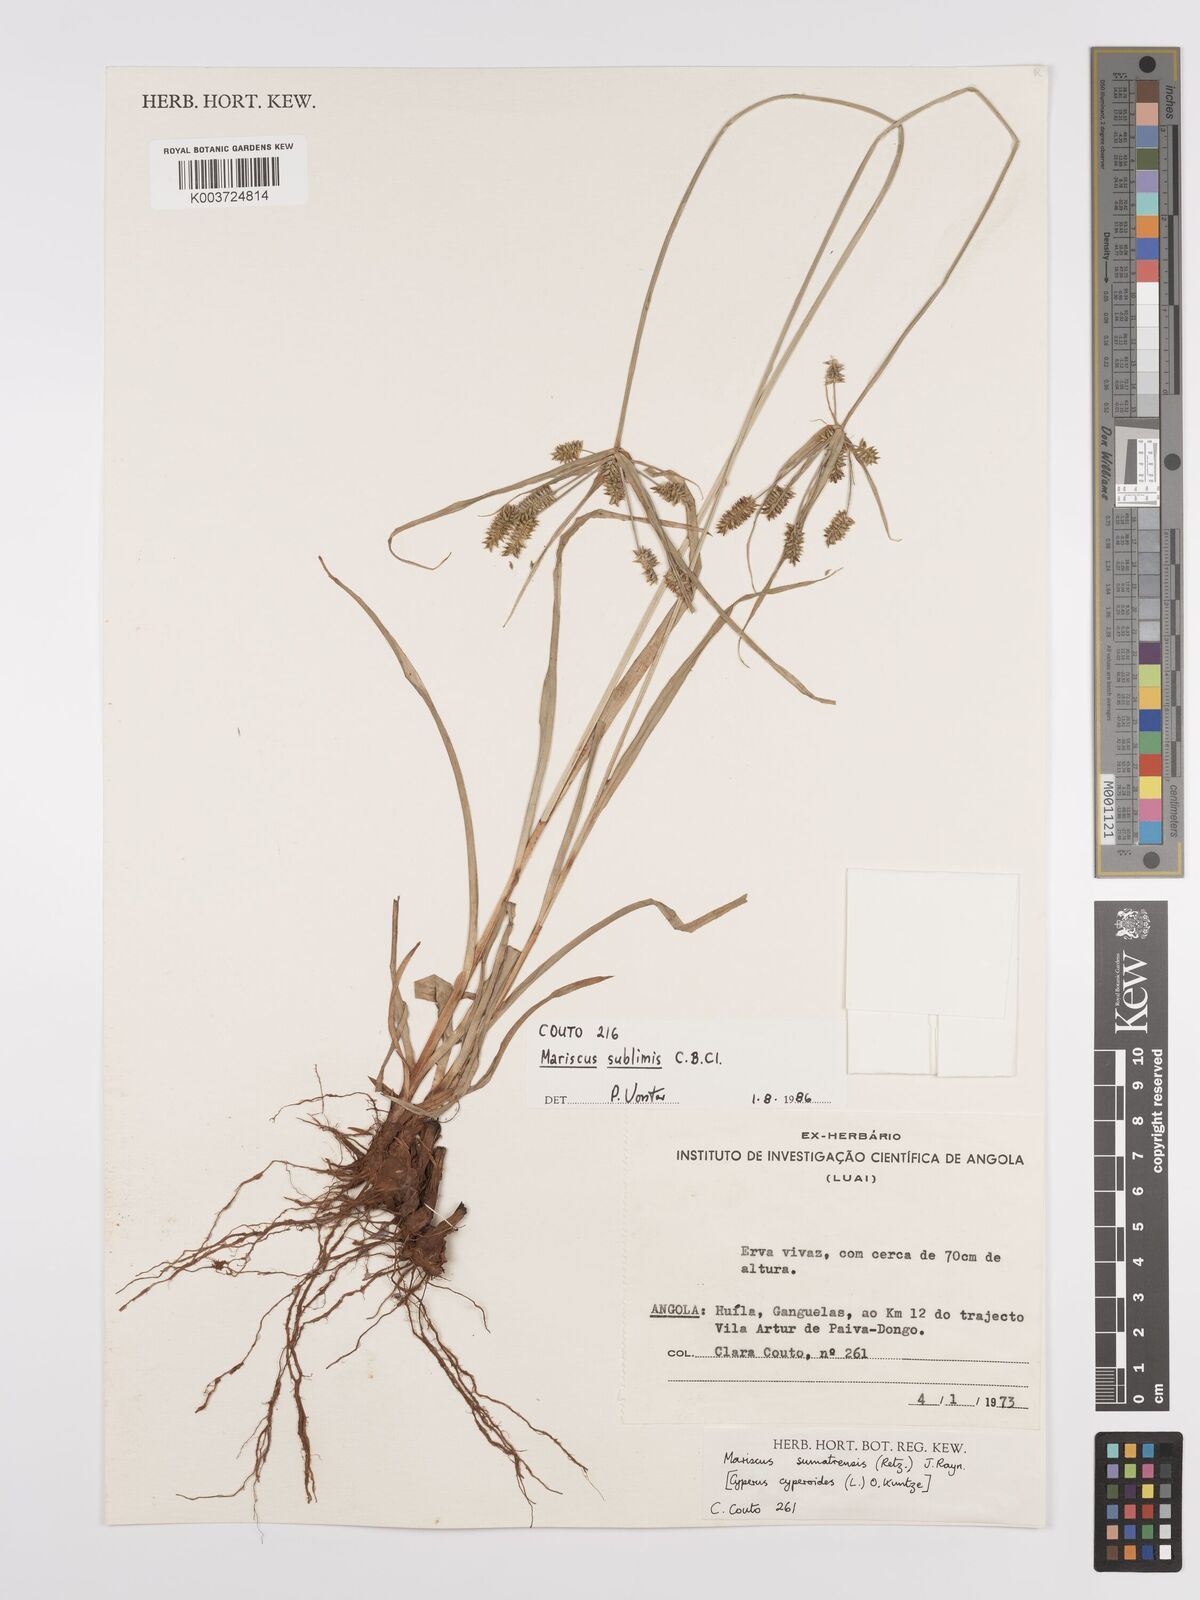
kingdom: Plantae
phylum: Tracheophyta
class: Liliopsida
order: Poales
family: Cyperaceae
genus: Cyperus
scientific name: Cyperus cyperoides
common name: Pacific island flat sedge
